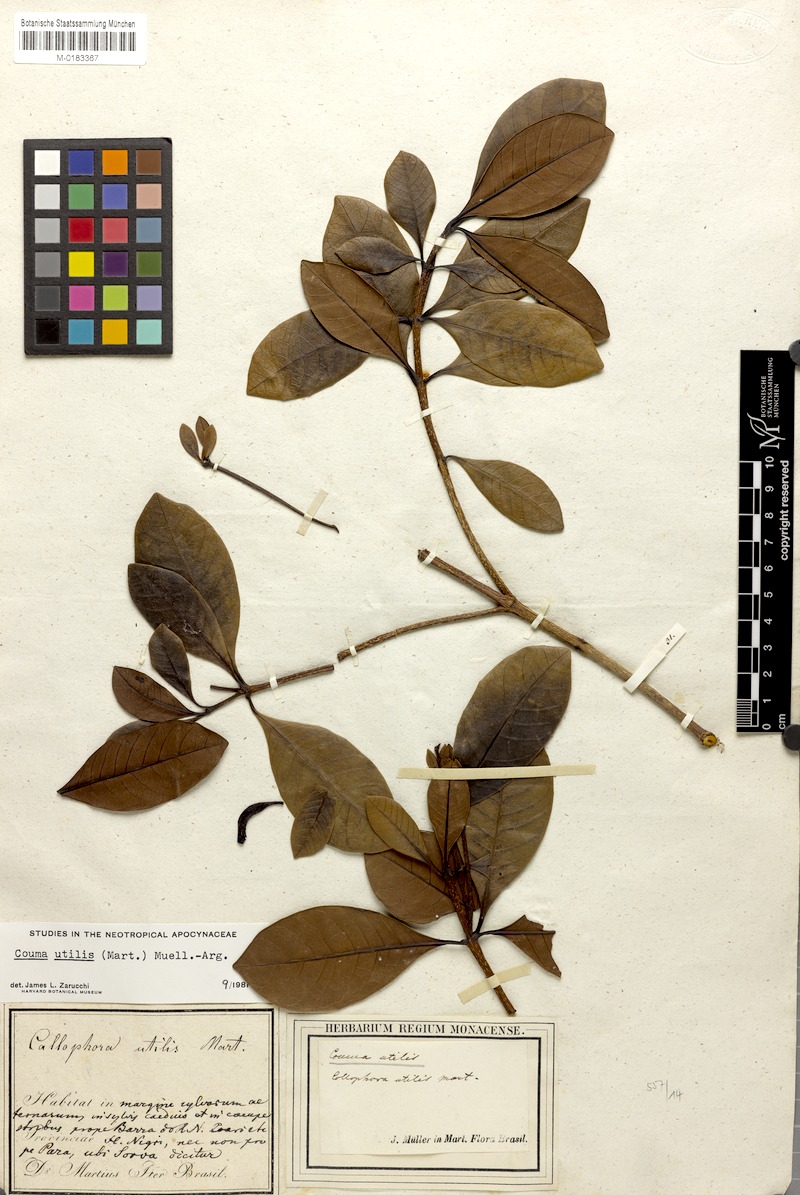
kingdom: Plantae
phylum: Tracheophyta
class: Magnoliopsida
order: Gentianales
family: Apocynaceae
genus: Couma
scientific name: Couma utilis
